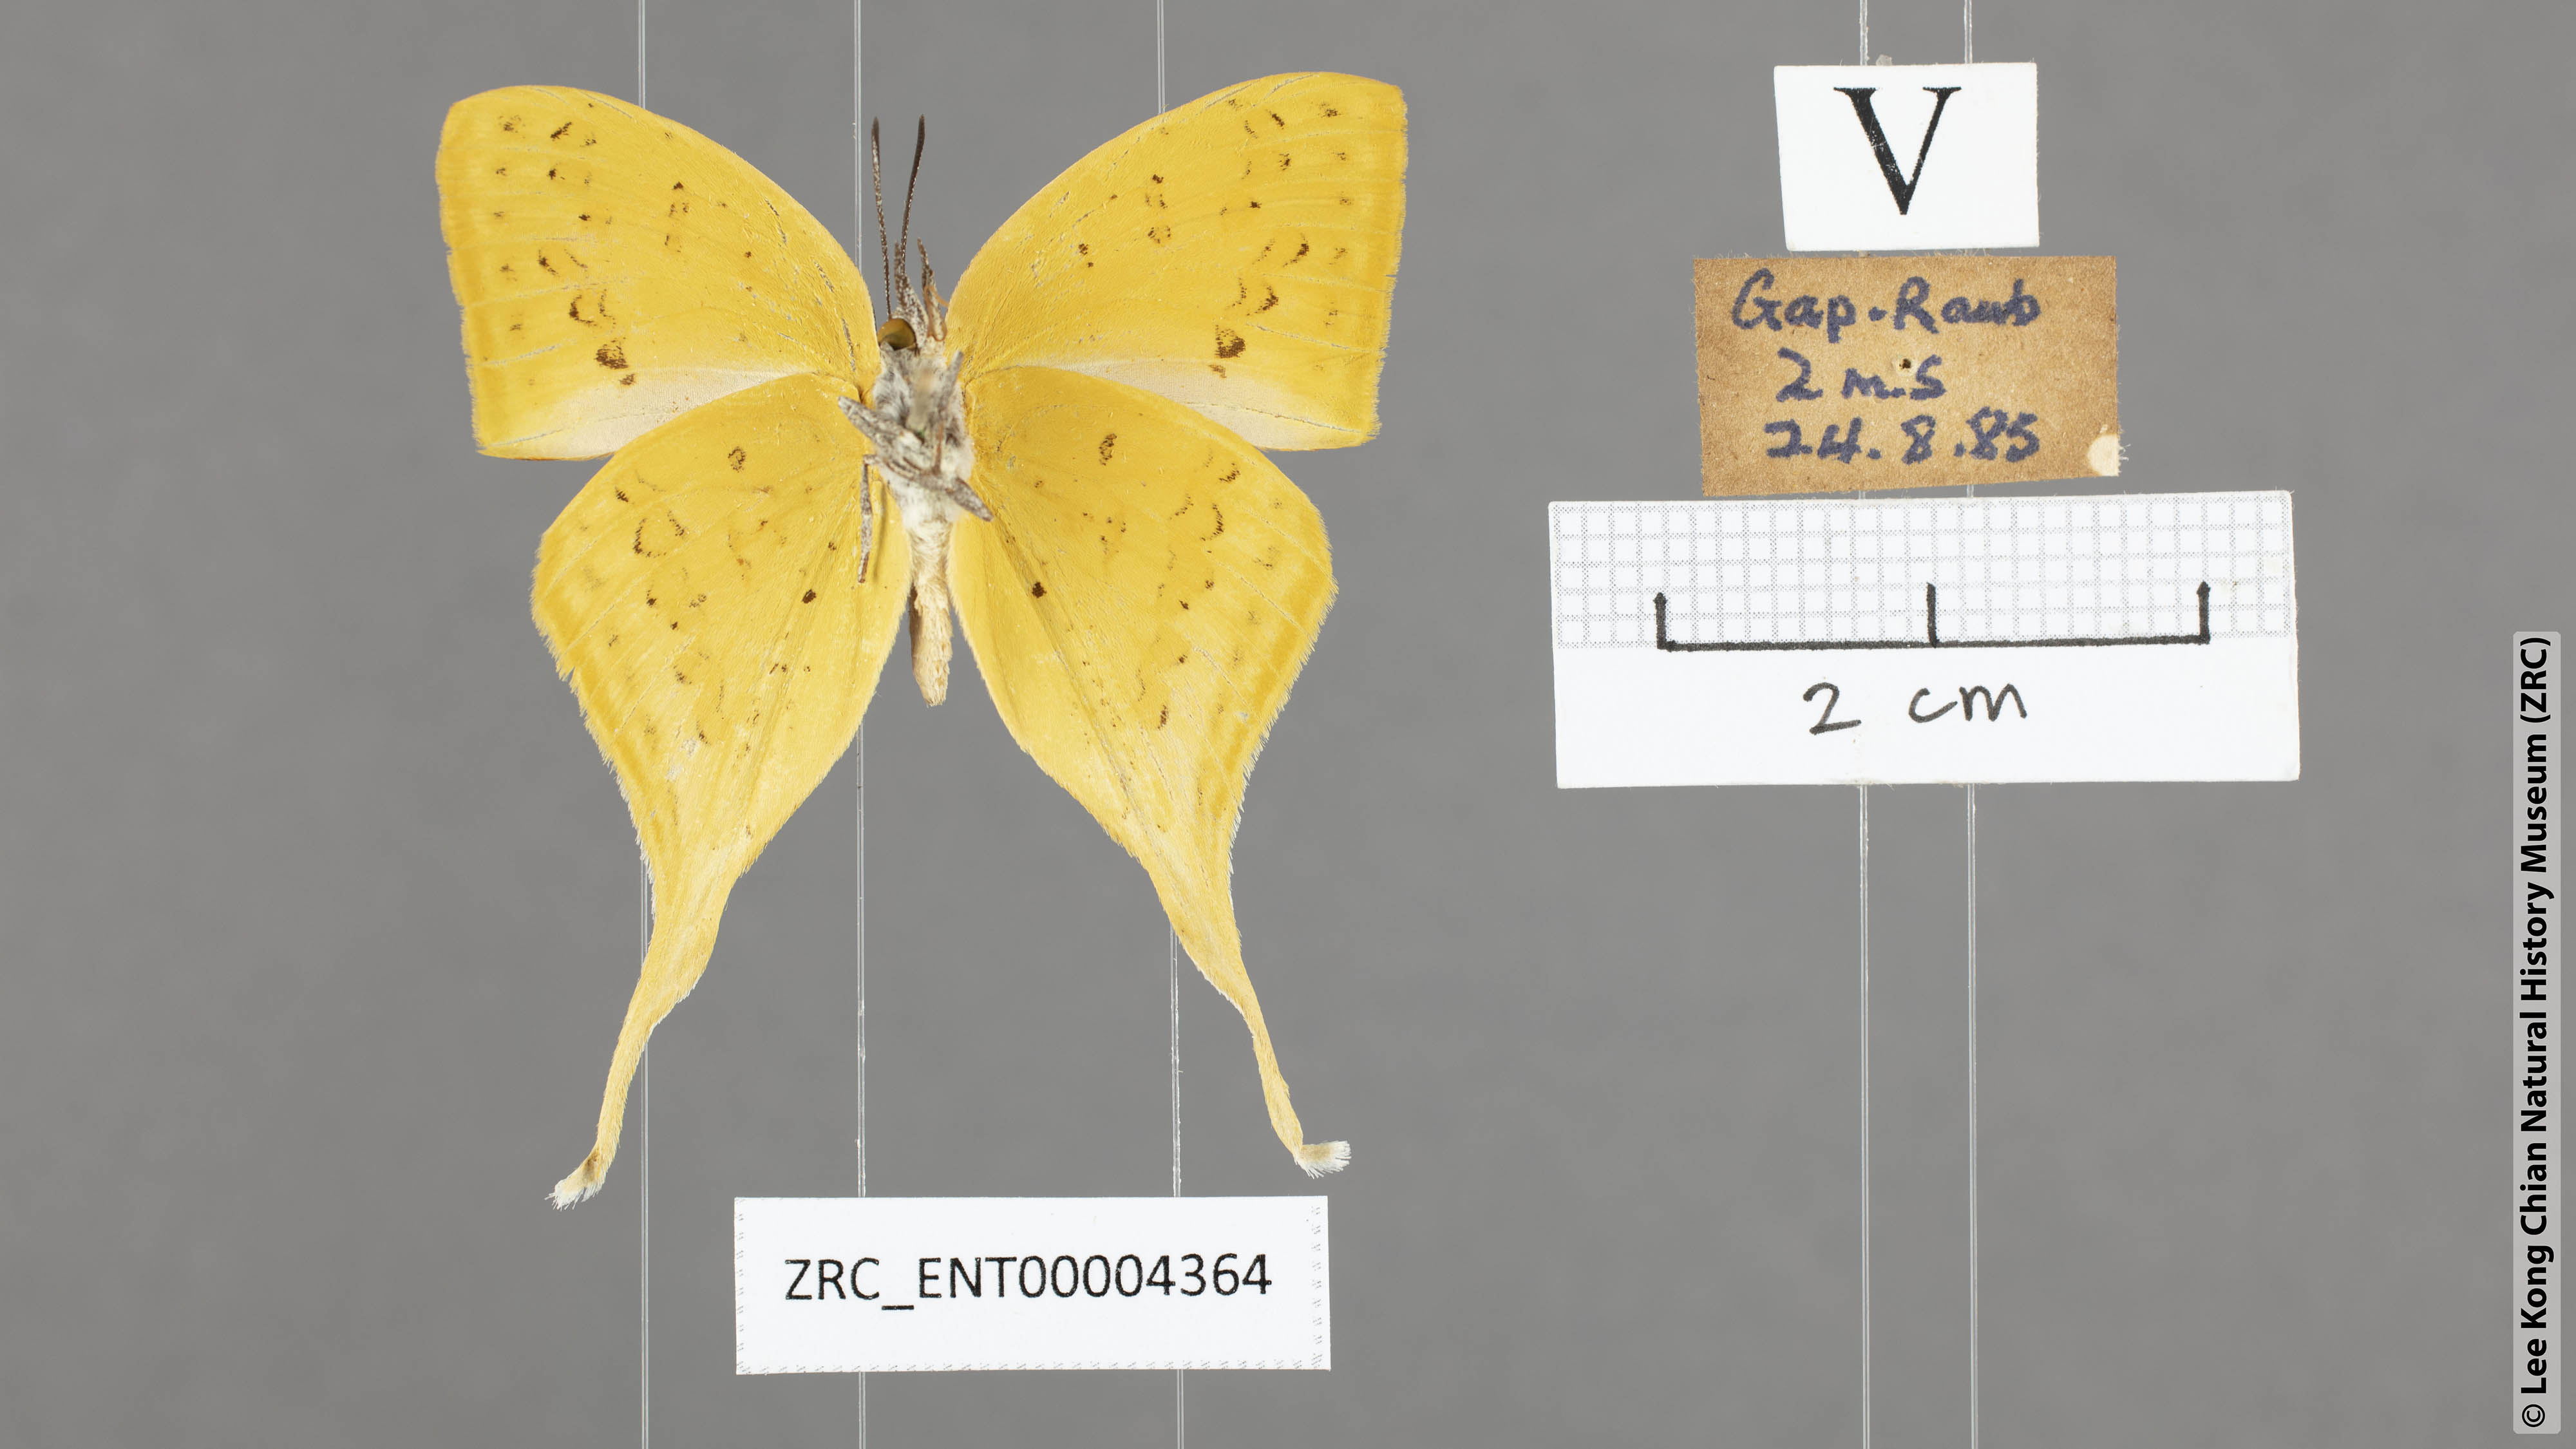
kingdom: Animalia
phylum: Arthropoda
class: Insecta
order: Lepidoptera
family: Lycaenidae
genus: Loxura
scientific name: Loxura cassiopeia
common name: Malayan yamfly
